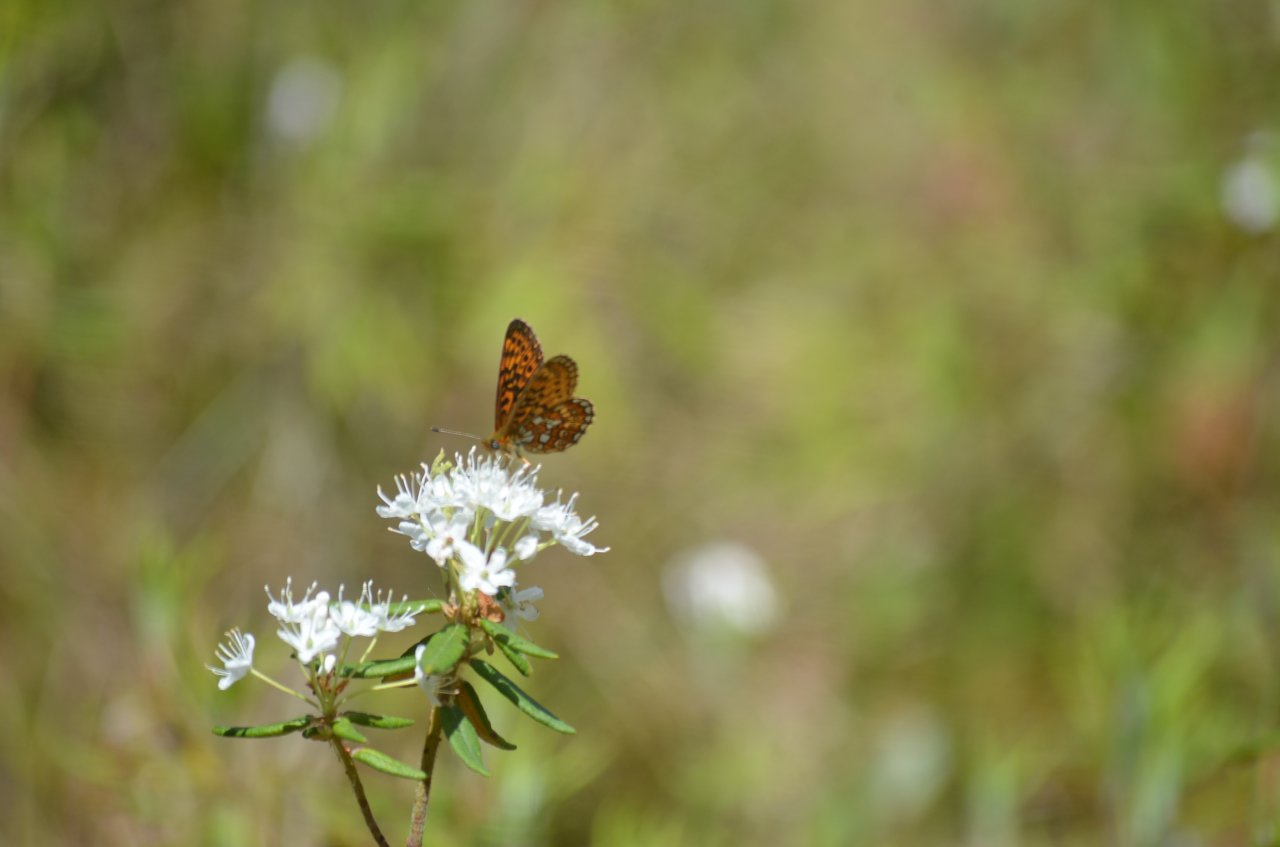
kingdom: Animalia
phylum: Arthropoda
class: Insecta
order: Lepidoptera
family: Nymphalidae
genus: Boloria
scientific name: Boloria eunomia
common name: Bog Fritillary
